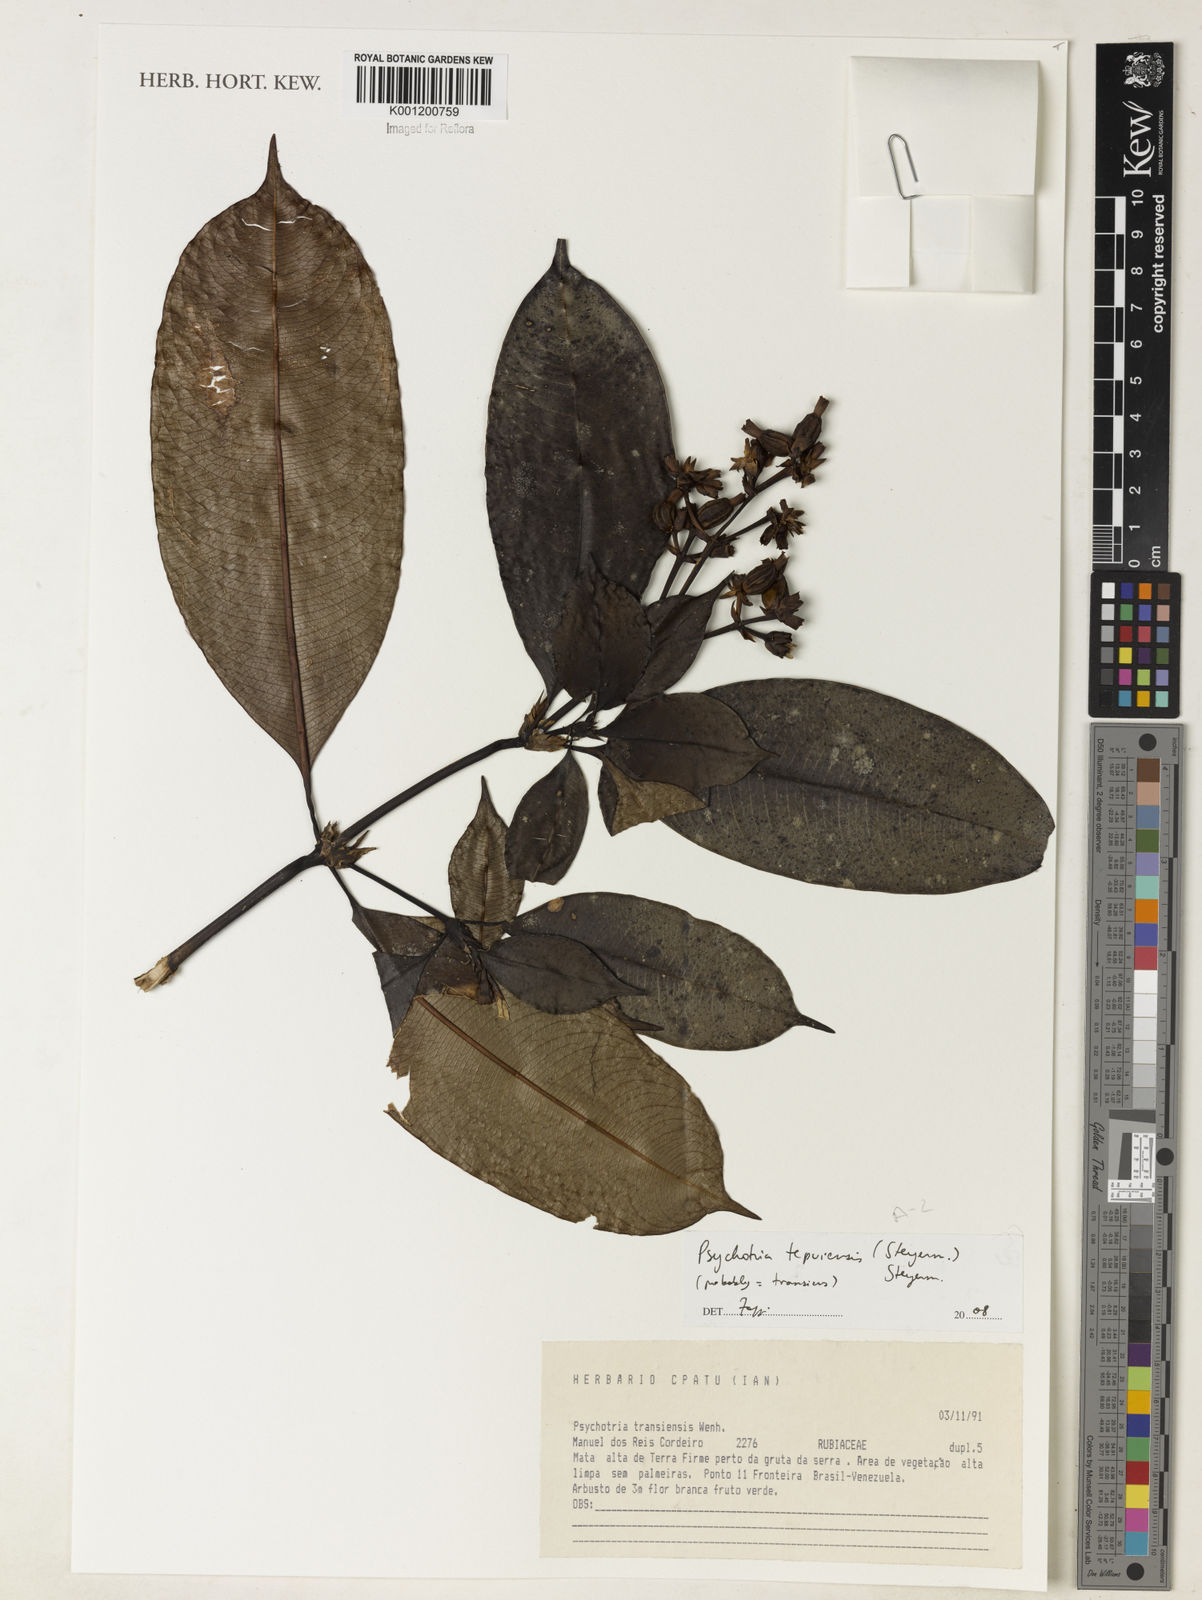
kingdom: Plantae
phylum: Tracheophyta
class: Magnoliopsida
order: Gentianales
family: Rubiaceae
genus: Palicourea
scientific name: Palicourea tepuiensis
